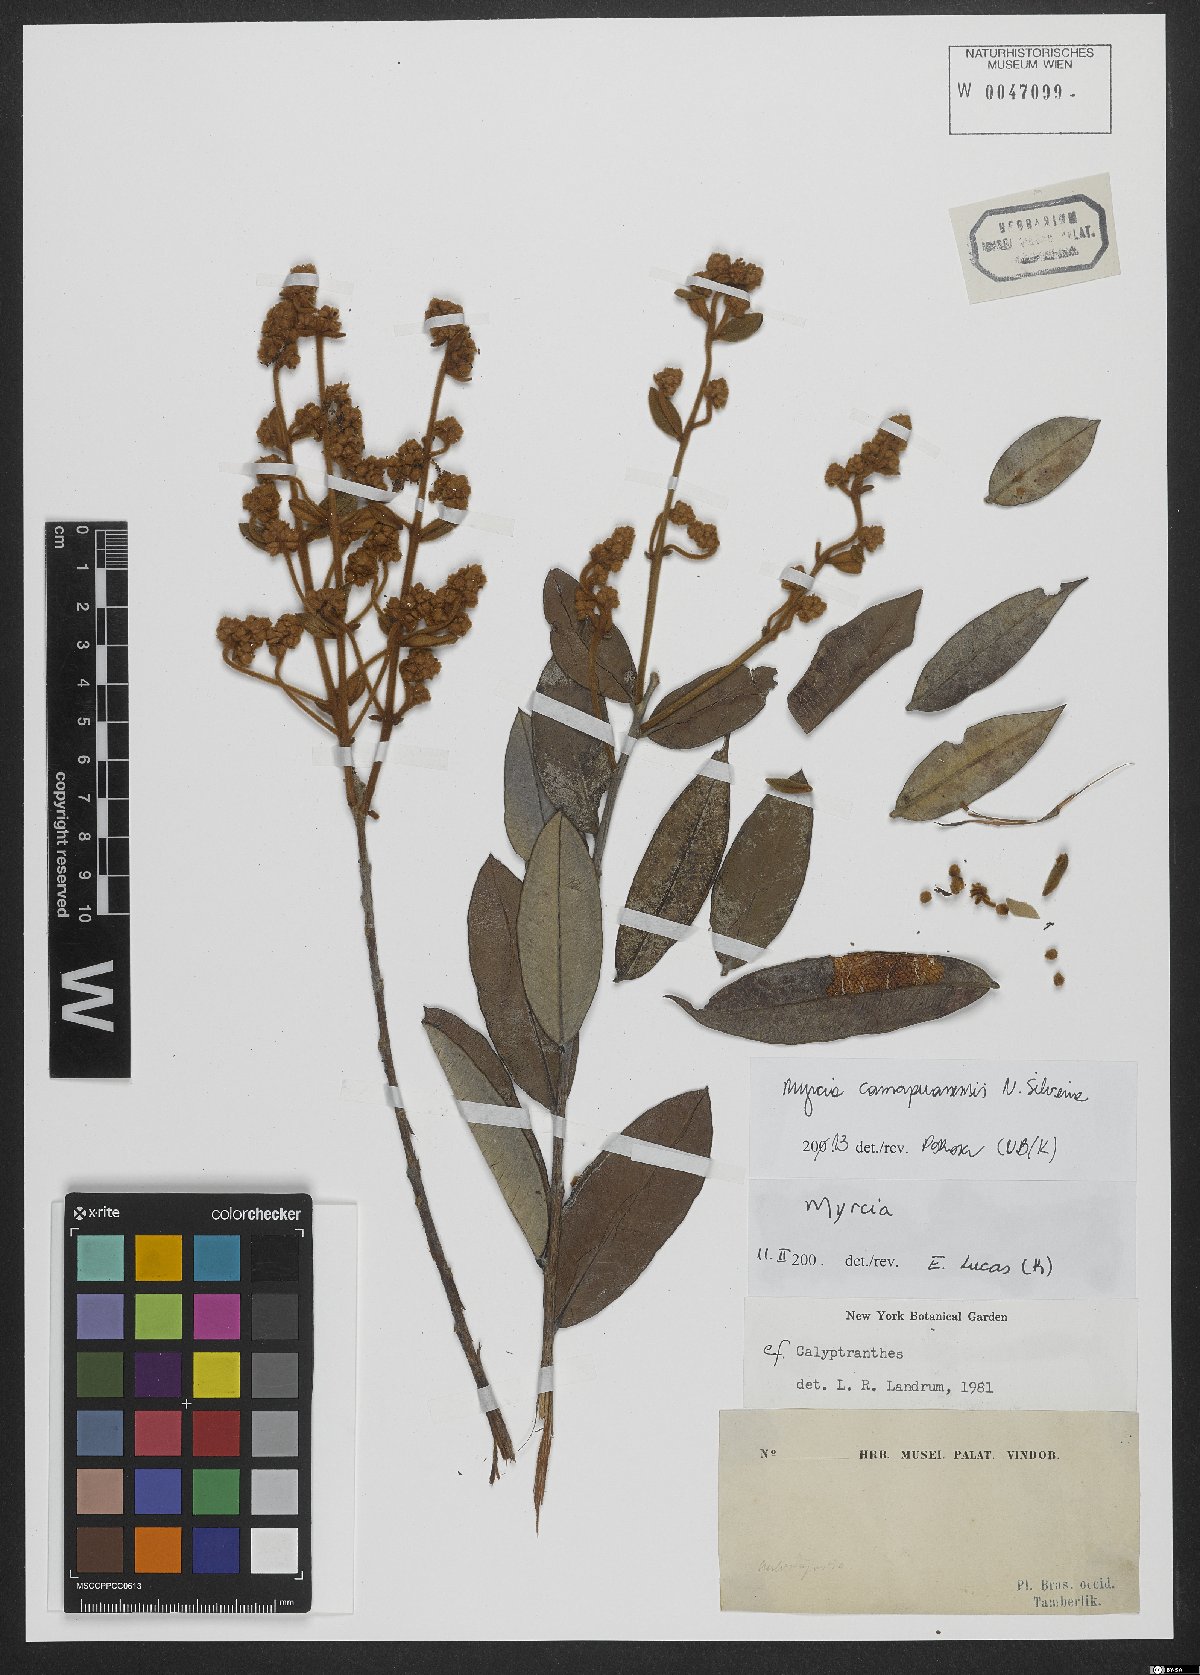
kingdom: Plantae
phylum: Tracheophyta
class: Magnoliopsida
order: Myrtales
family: Myrtaceae
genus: Myrcia
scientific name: Myrcia camapuanensis
